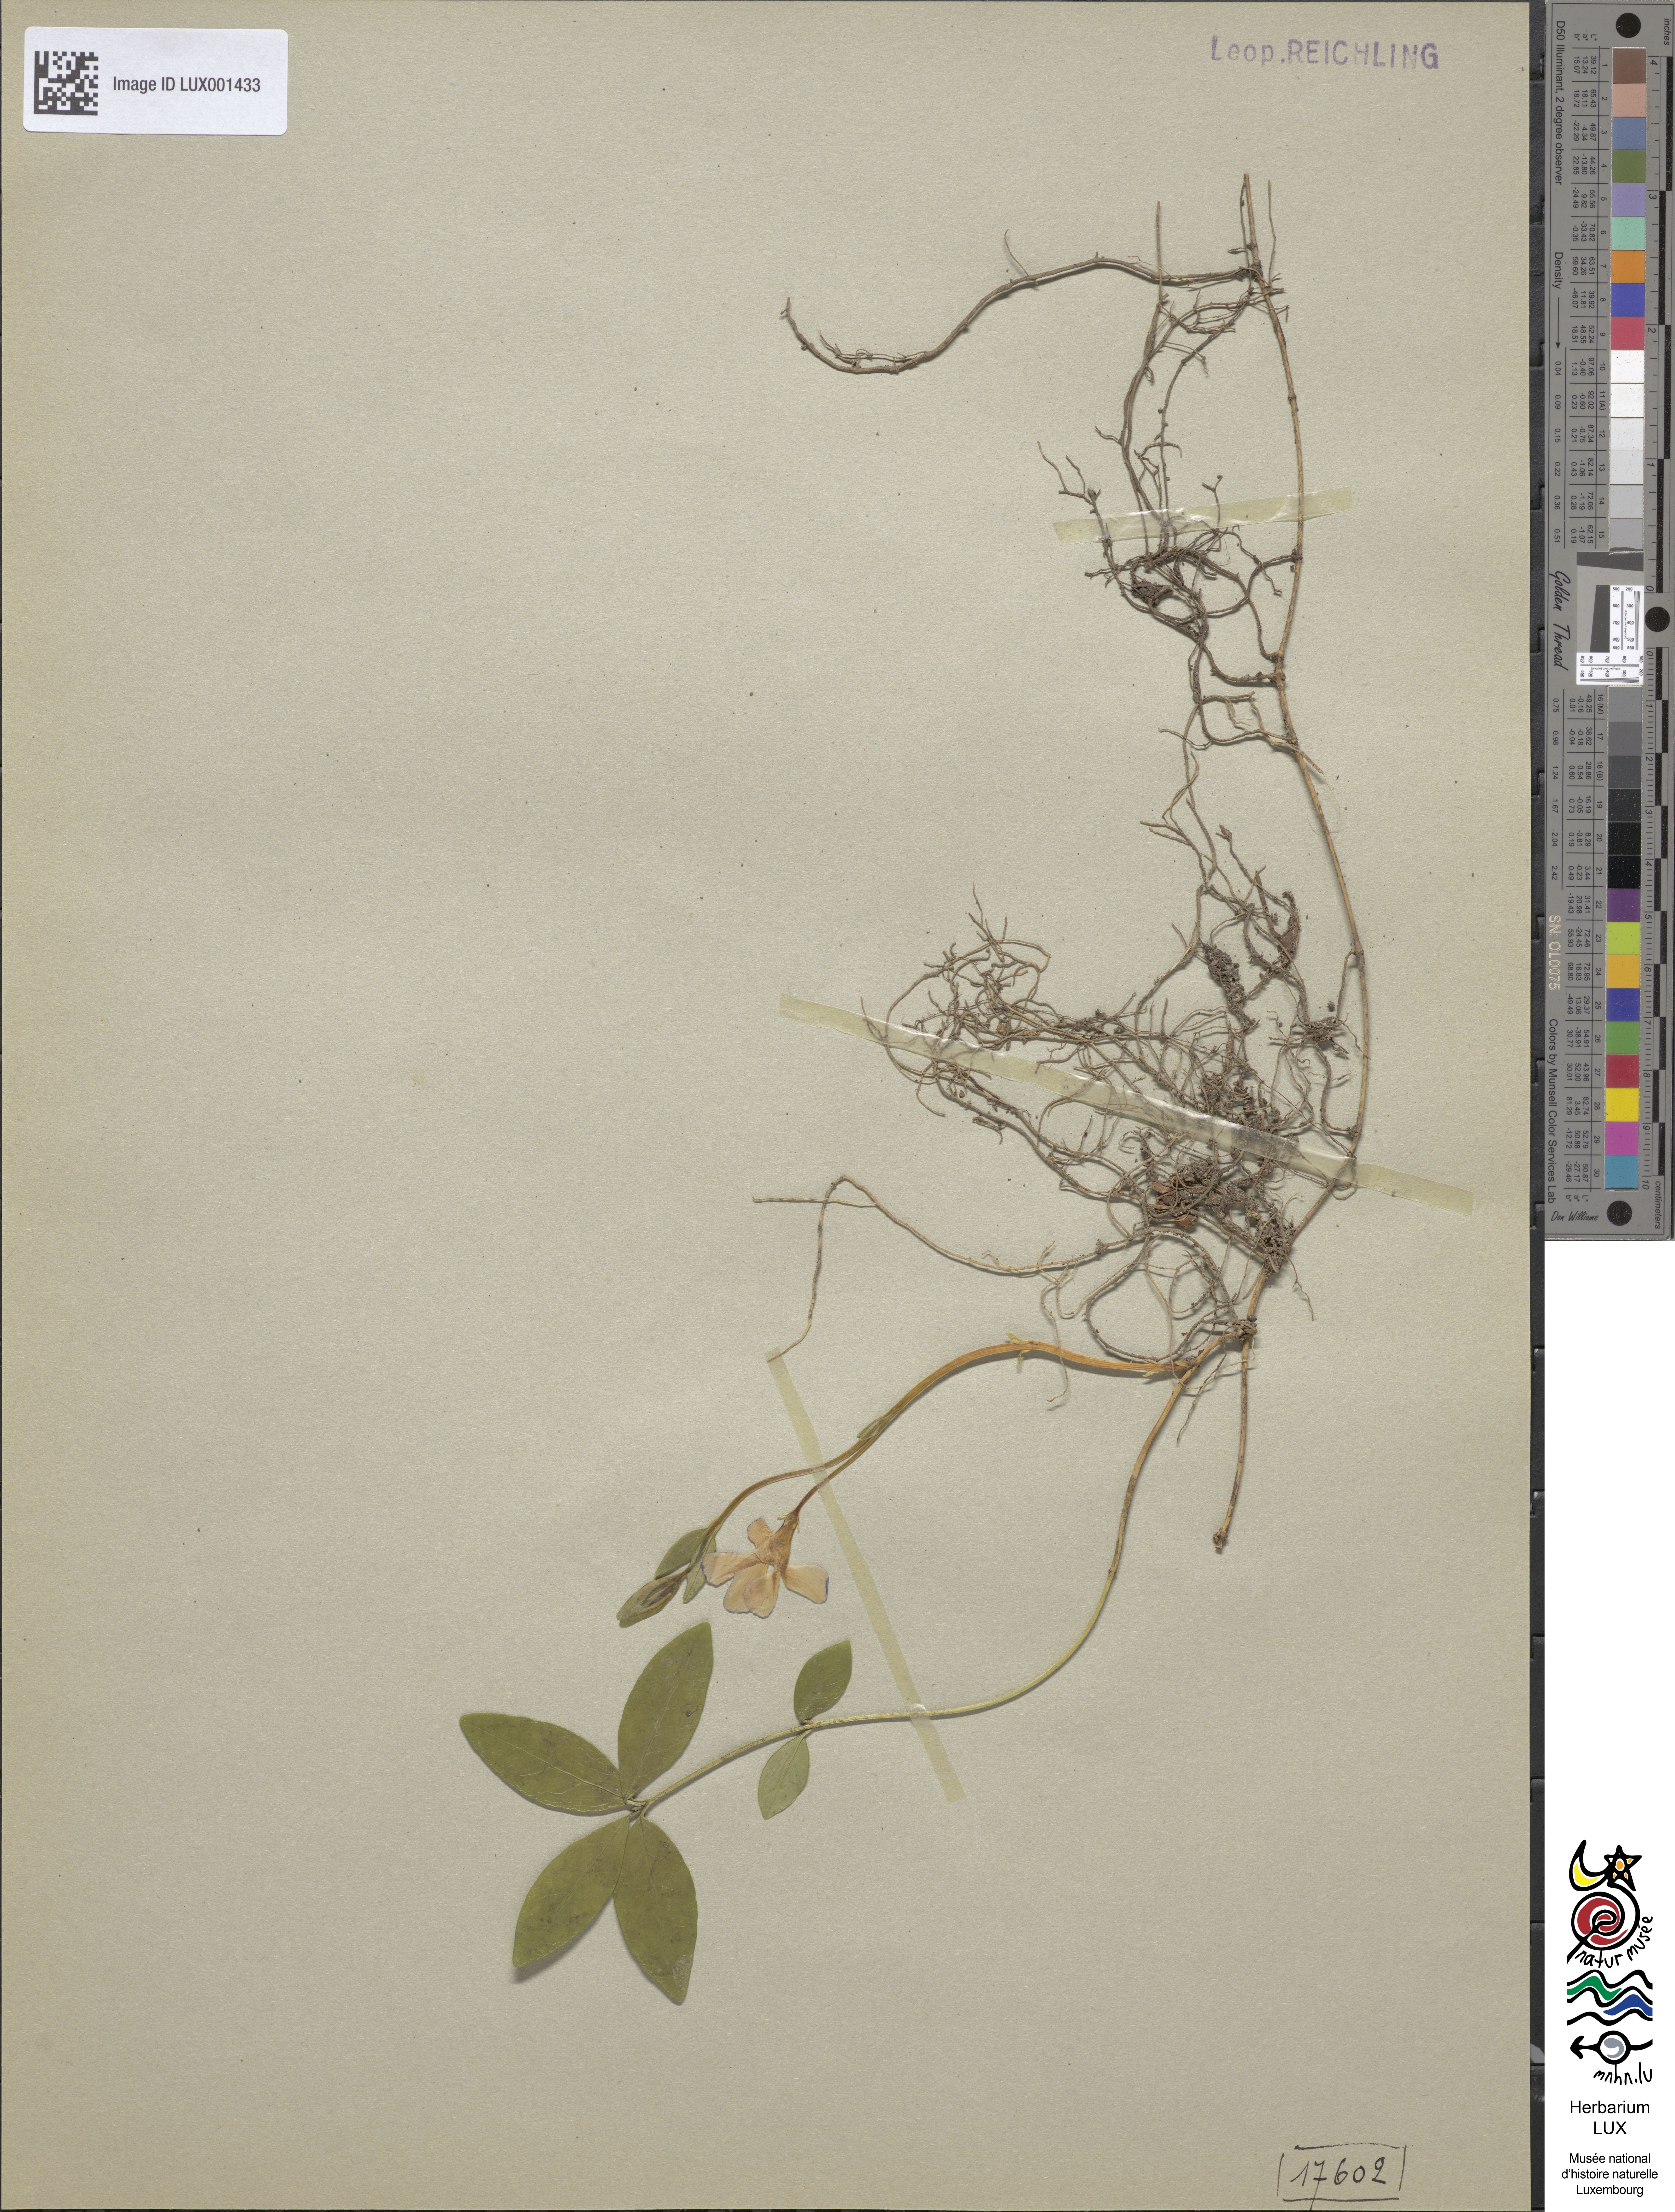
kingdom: Plantae
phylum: Tracheophyta
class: Magnoliopsida
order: Gentianales
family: Apocynaceae
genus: Vinca
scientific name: Vinca minor
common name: Lesser periwinkle
